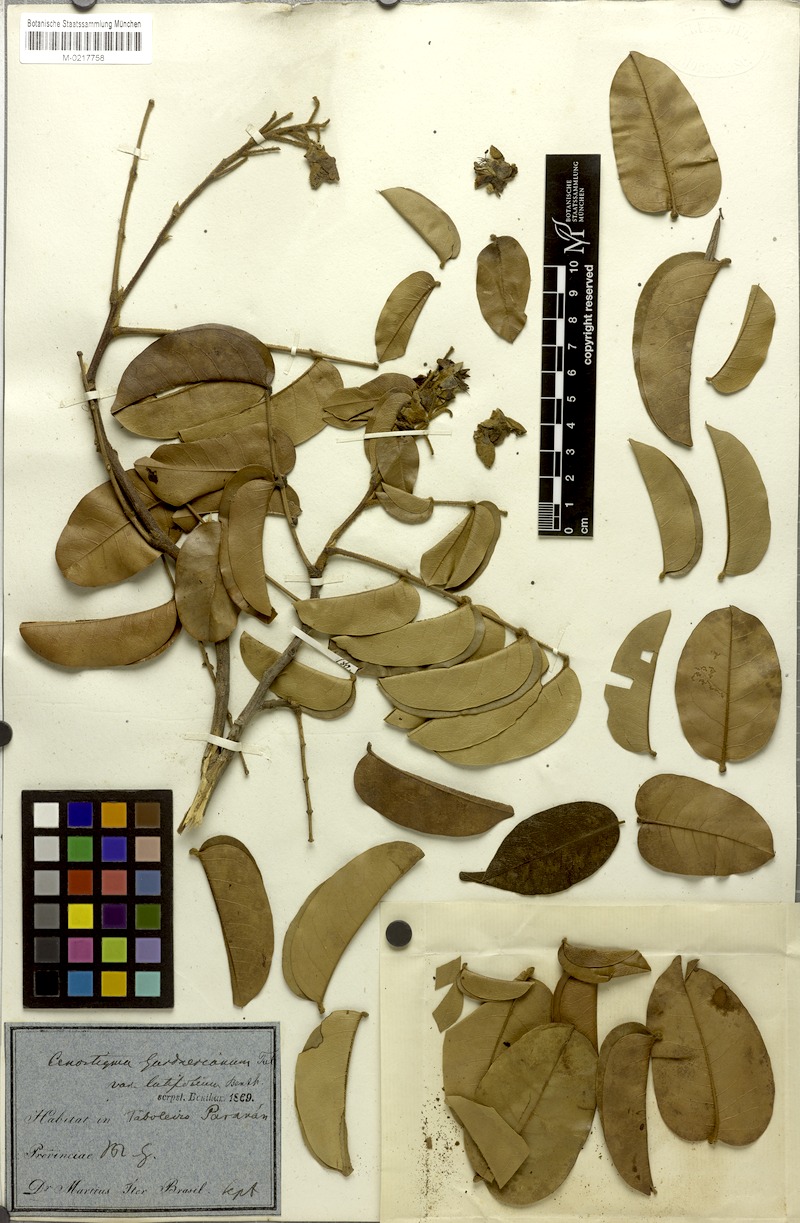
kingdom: Plantae
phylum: Tracheophyta
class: Magnoliopsida
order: Fabales
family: Fabaceae
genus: Cenostigma
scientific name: Cenostigma macrophyllum
